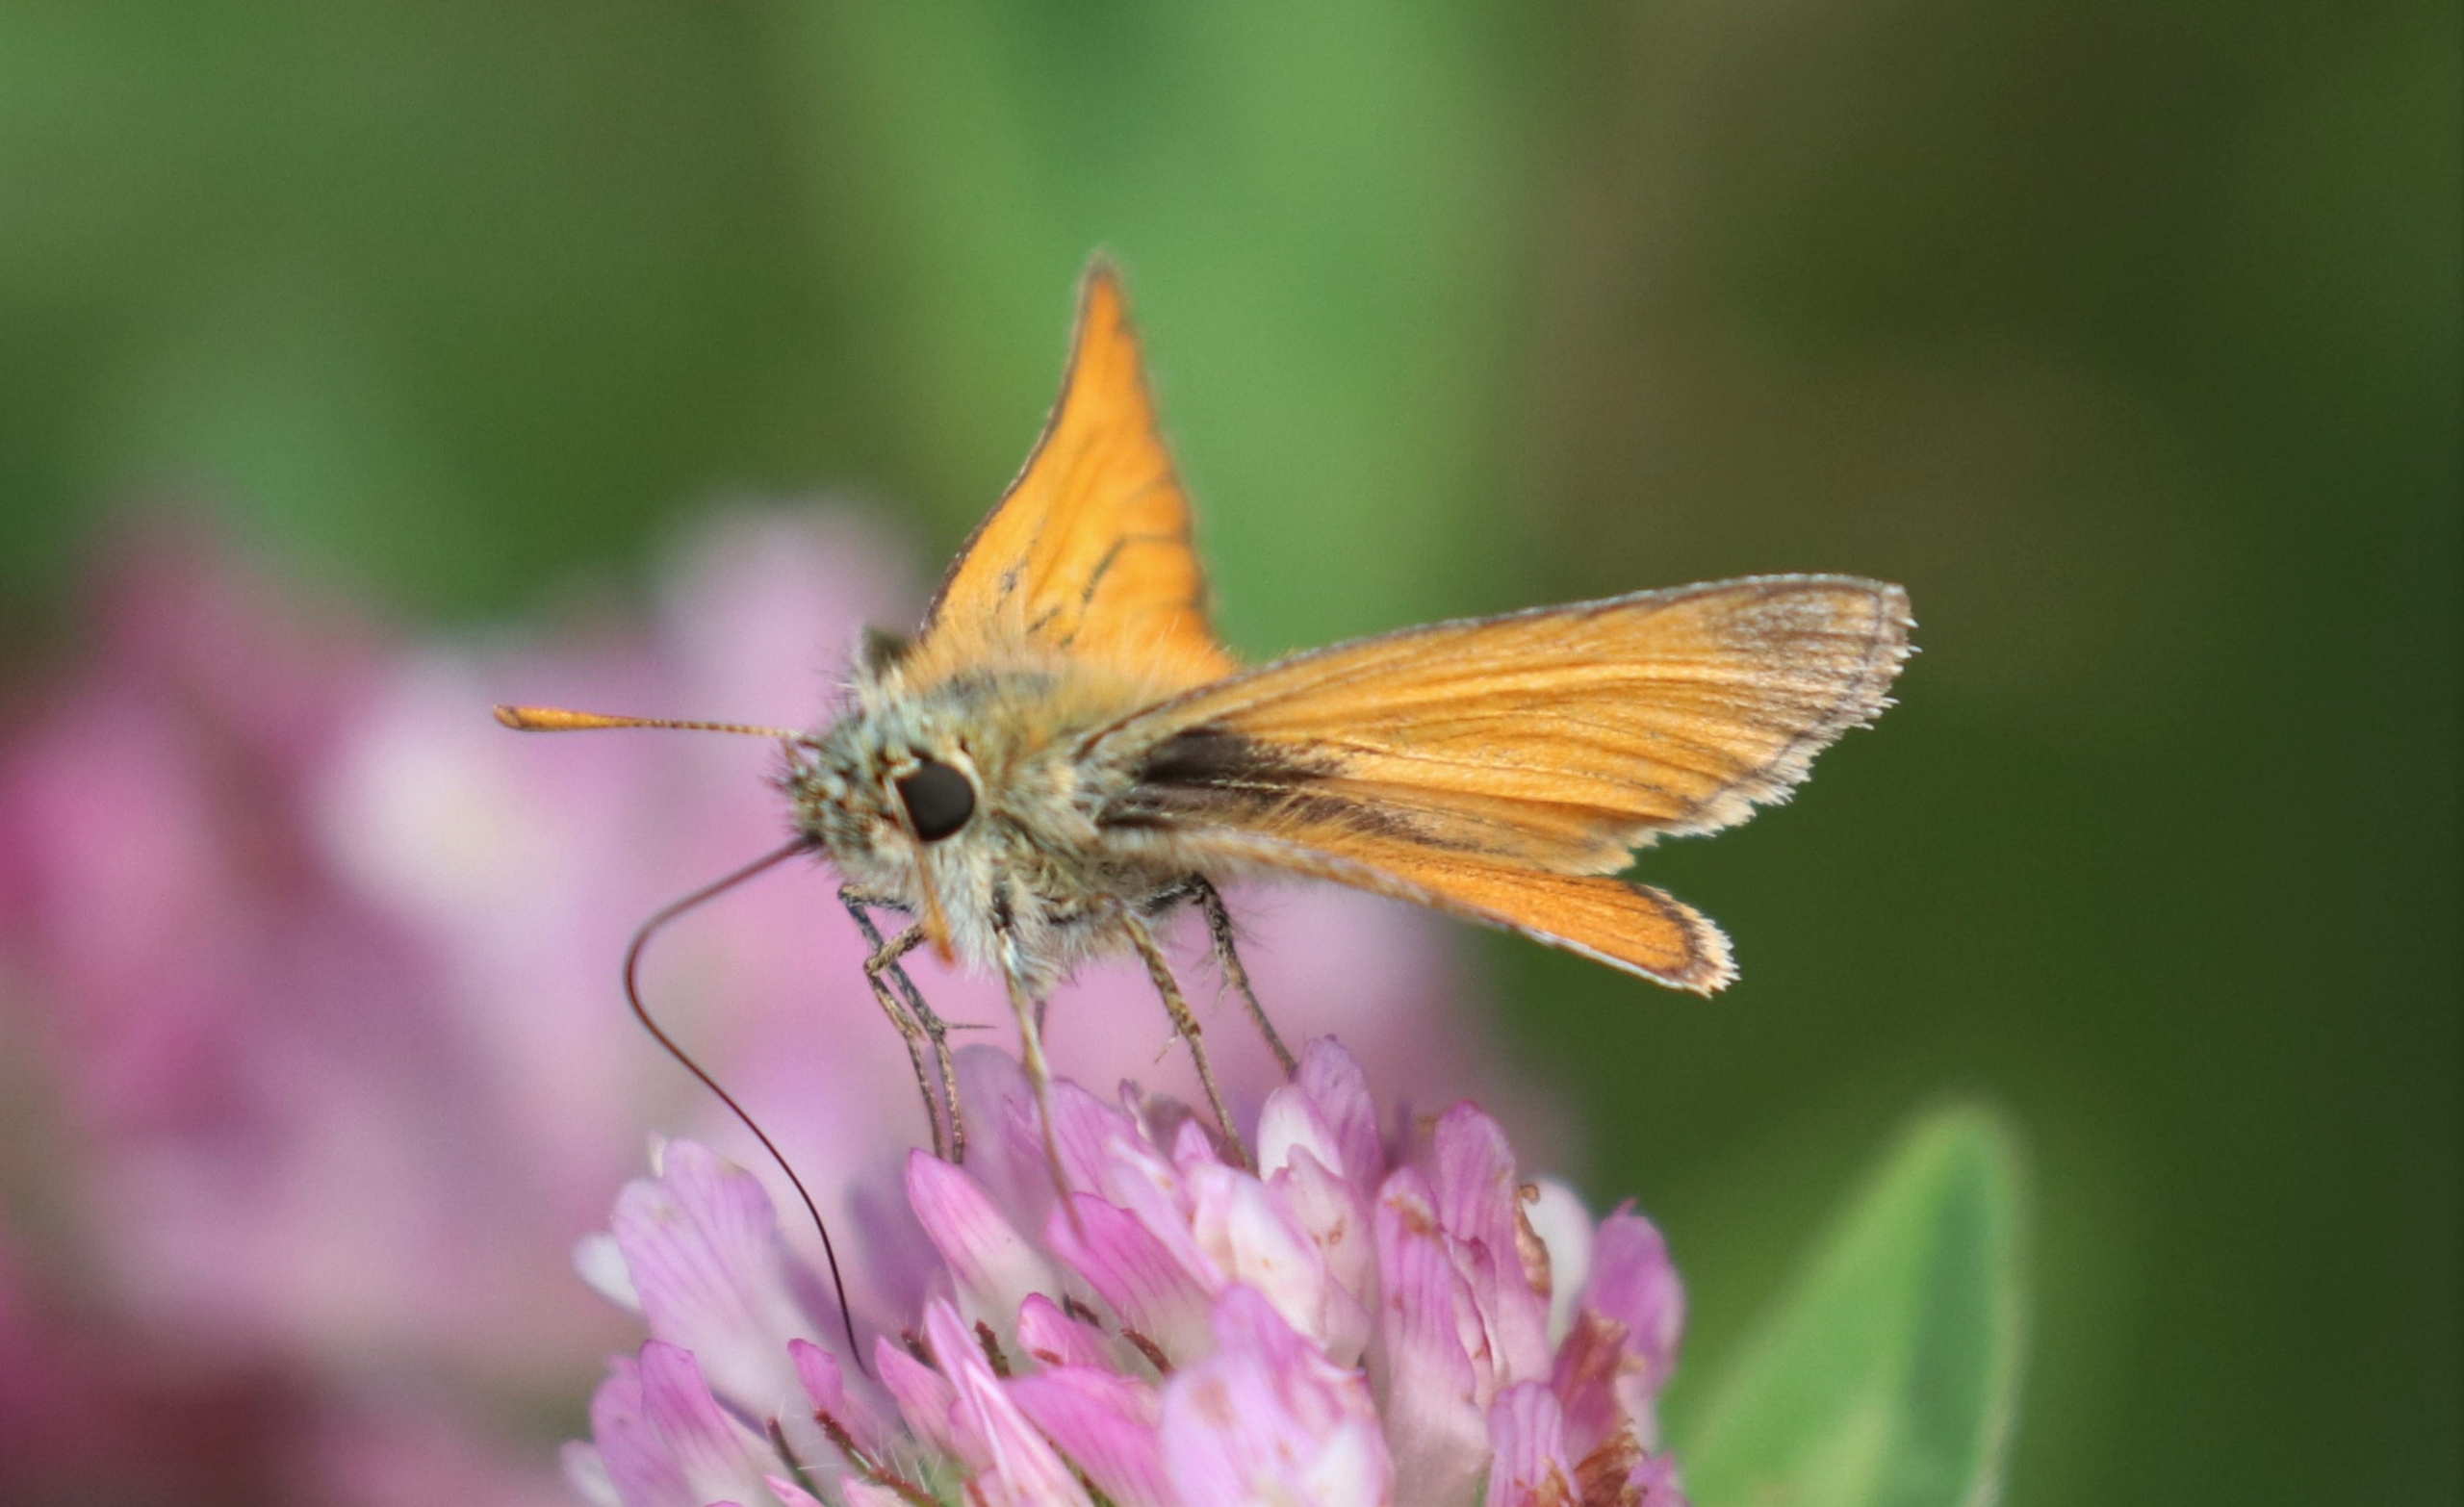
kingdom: Animalia
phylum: Arthropoda
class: Insecta
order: Lepidoptera
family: Hesperiidae
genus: Thymelicus
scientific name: Thymelicus sylvestris
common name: Skråstregbredpande
